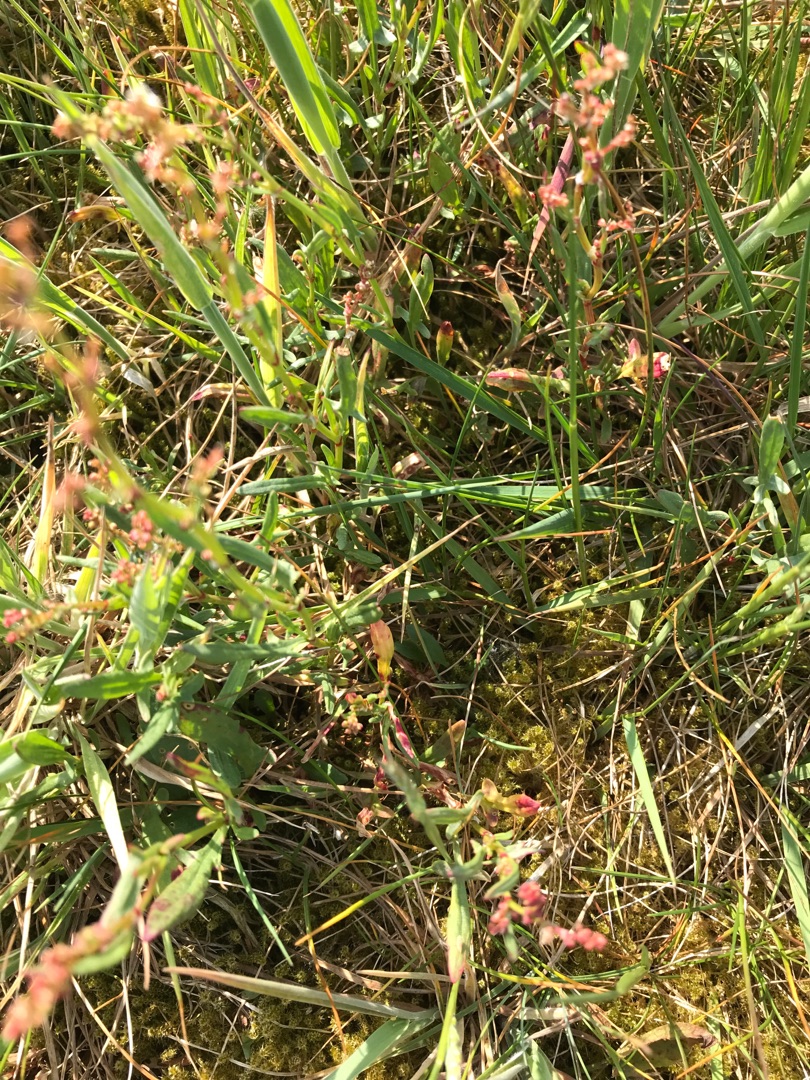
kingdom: Plantae
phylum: Tracheophyta
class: Magnoliopsida
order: Caryophyllales
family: Polygonaceae
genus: Rumex
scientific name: Rumex acetosella
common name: Rødknæ
